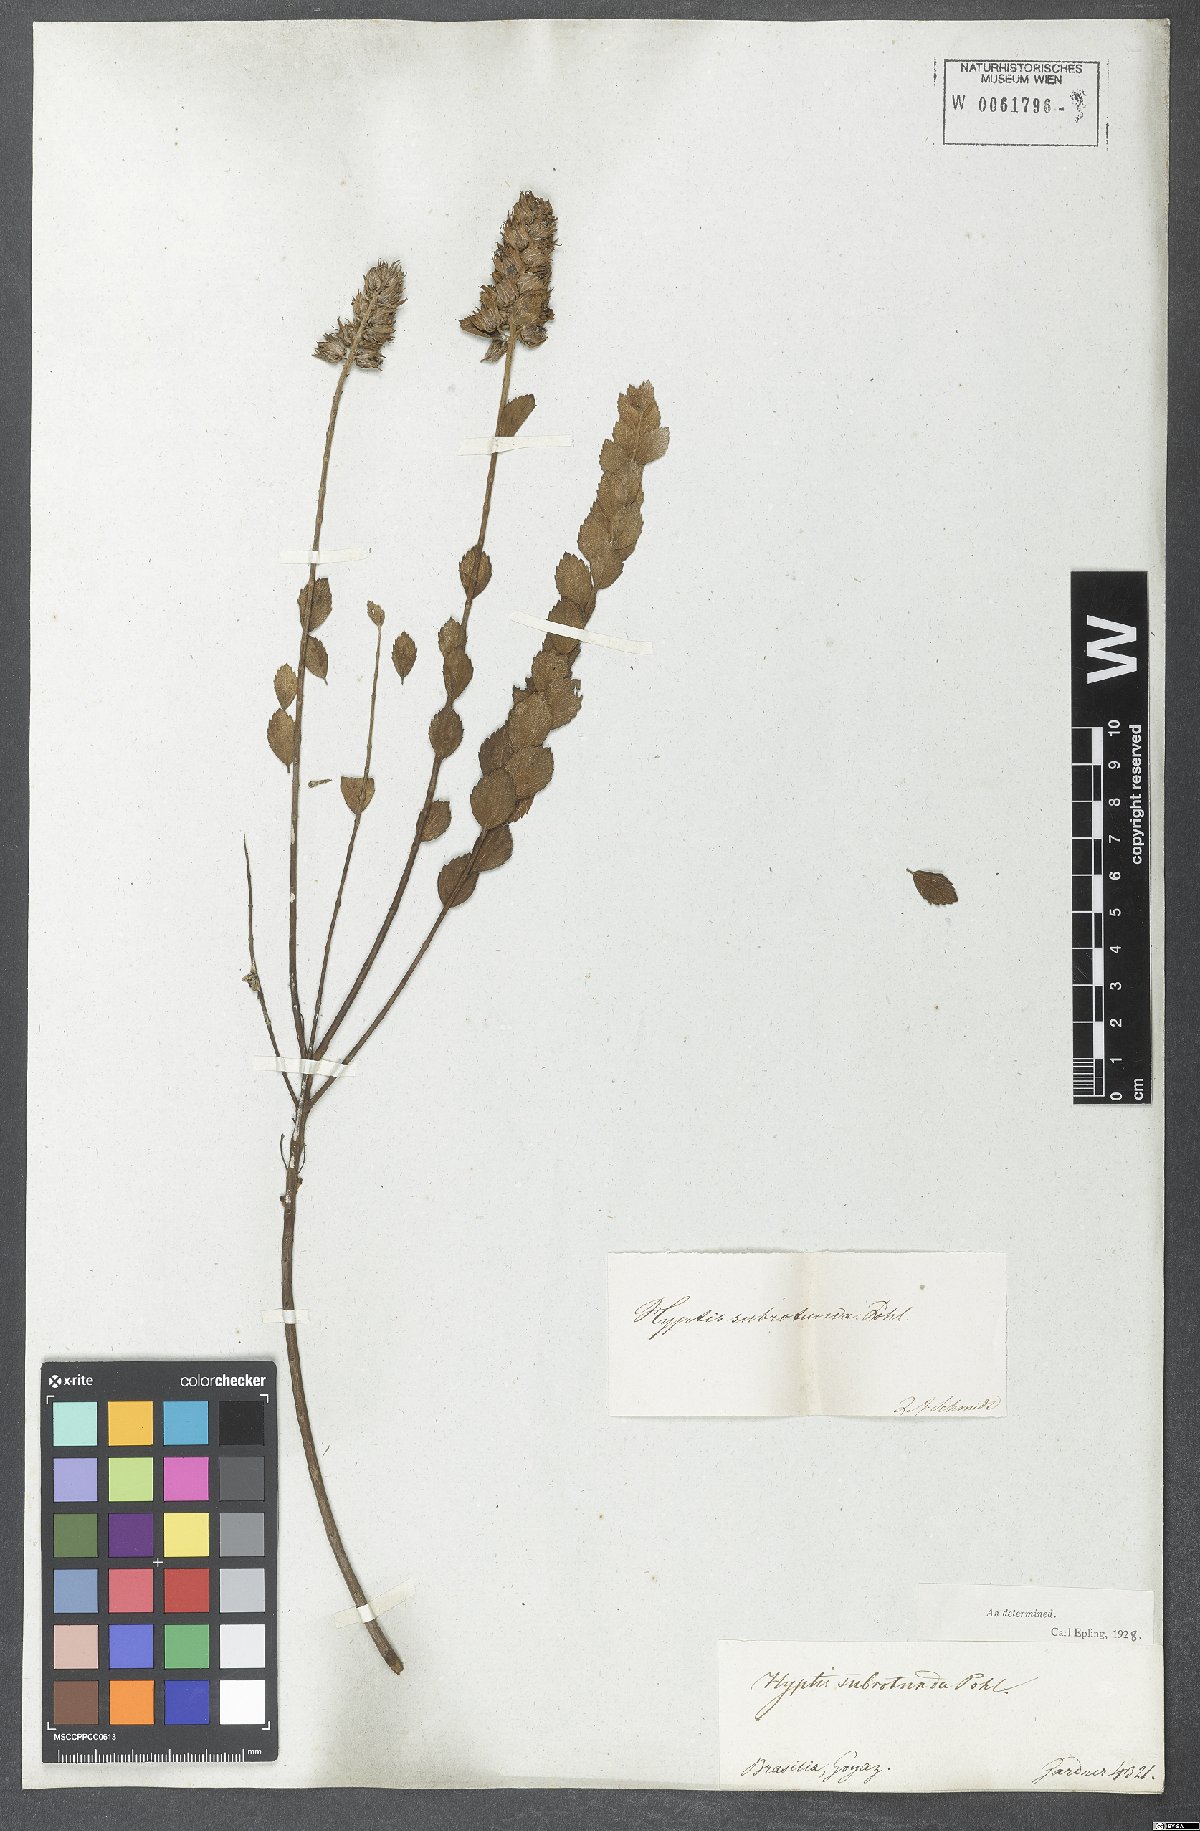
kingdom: Plantae
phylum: Tracheophyta
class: Magnoliopsida
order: Lamiales
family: Lamiaceae
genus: Cantinoa
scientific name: Cantinoa subrotunda
